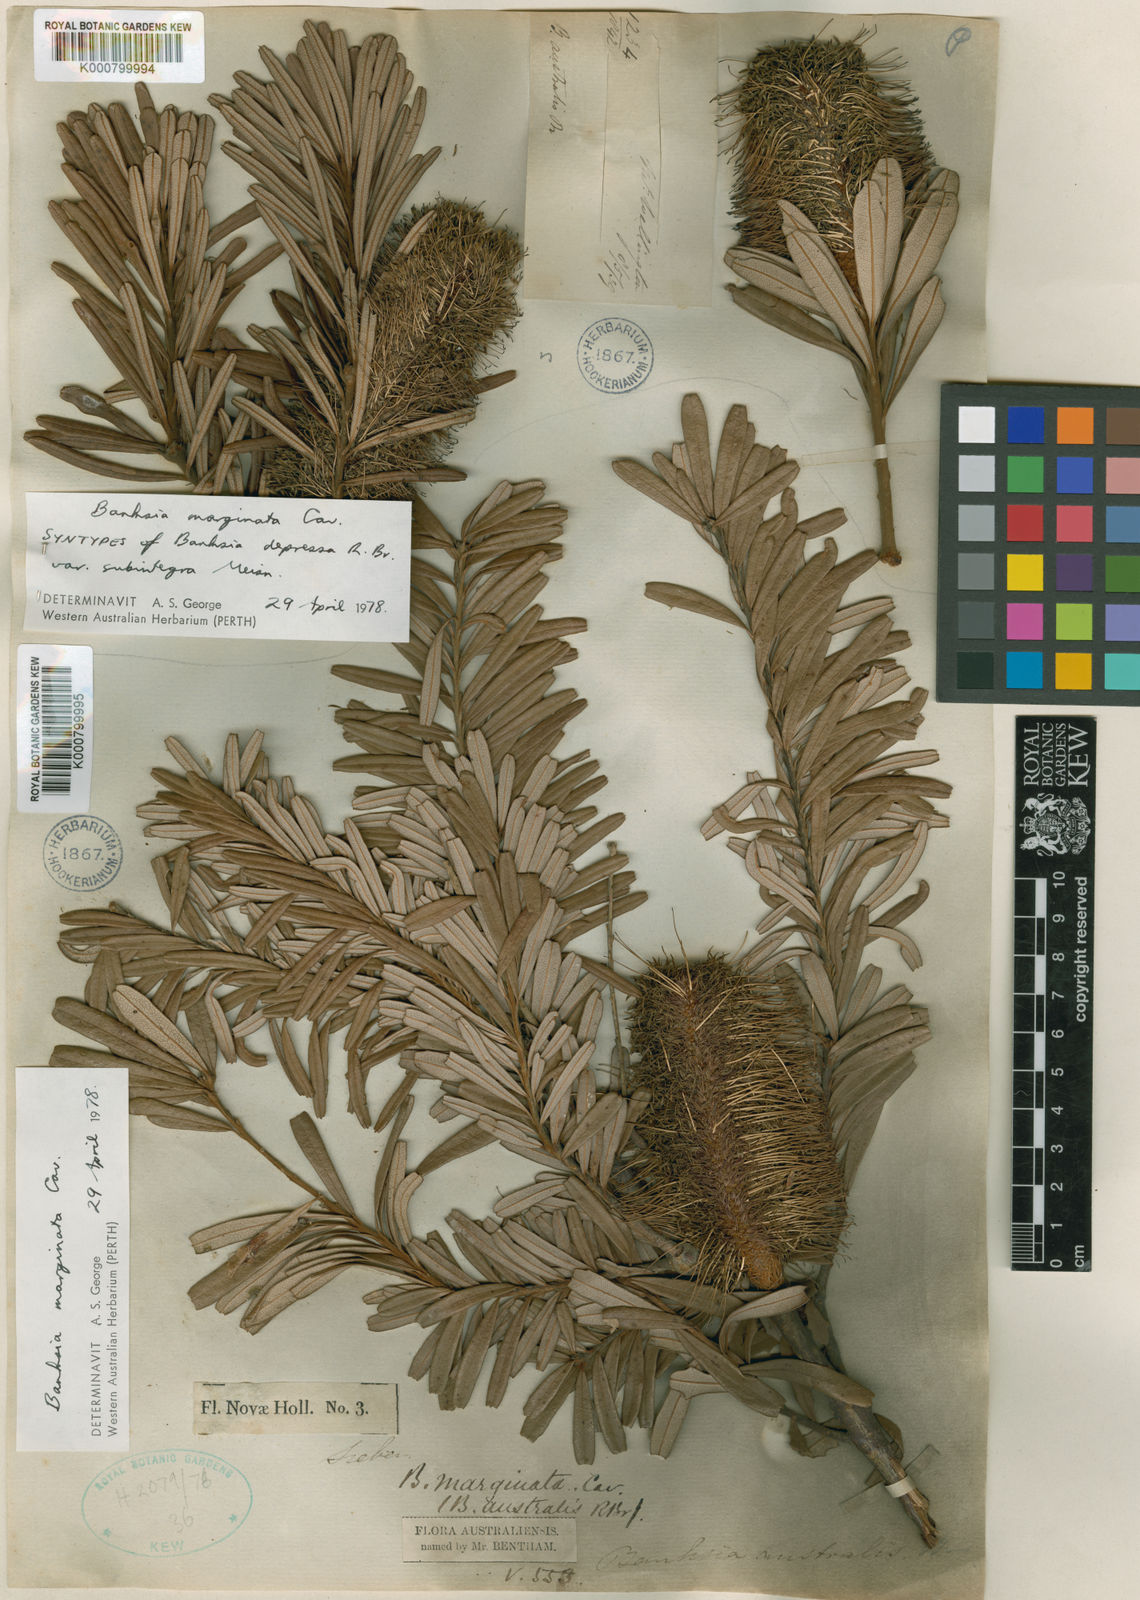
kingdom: Plantae
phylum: Tracheophyta
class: Magnoliopsida
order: Proteales
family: Proteaceae
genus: Banksia
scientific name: Banksia marginata
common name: Silver banksia
